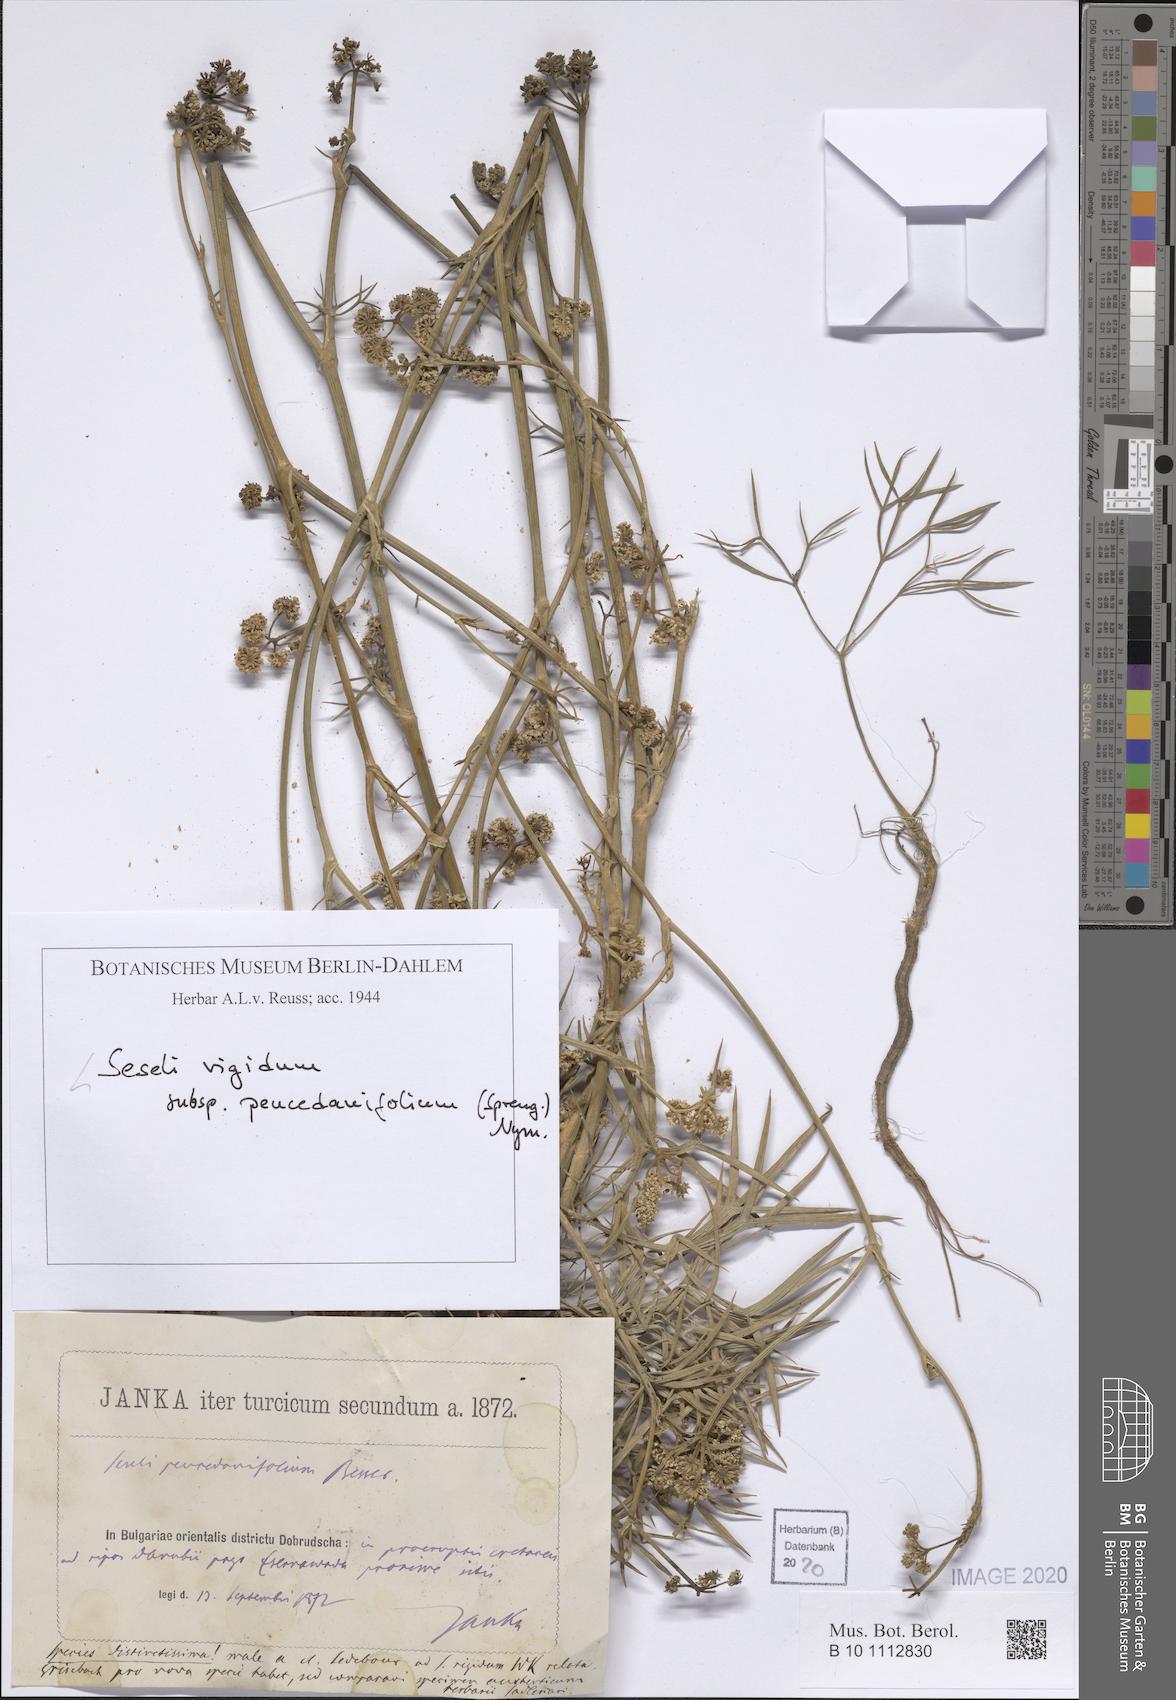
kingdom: Plantae
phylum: Tracheophyta
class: Magnoliopsida
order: Apiales
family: Apiaceae
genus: Seseli
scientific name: Seseli besserianum
